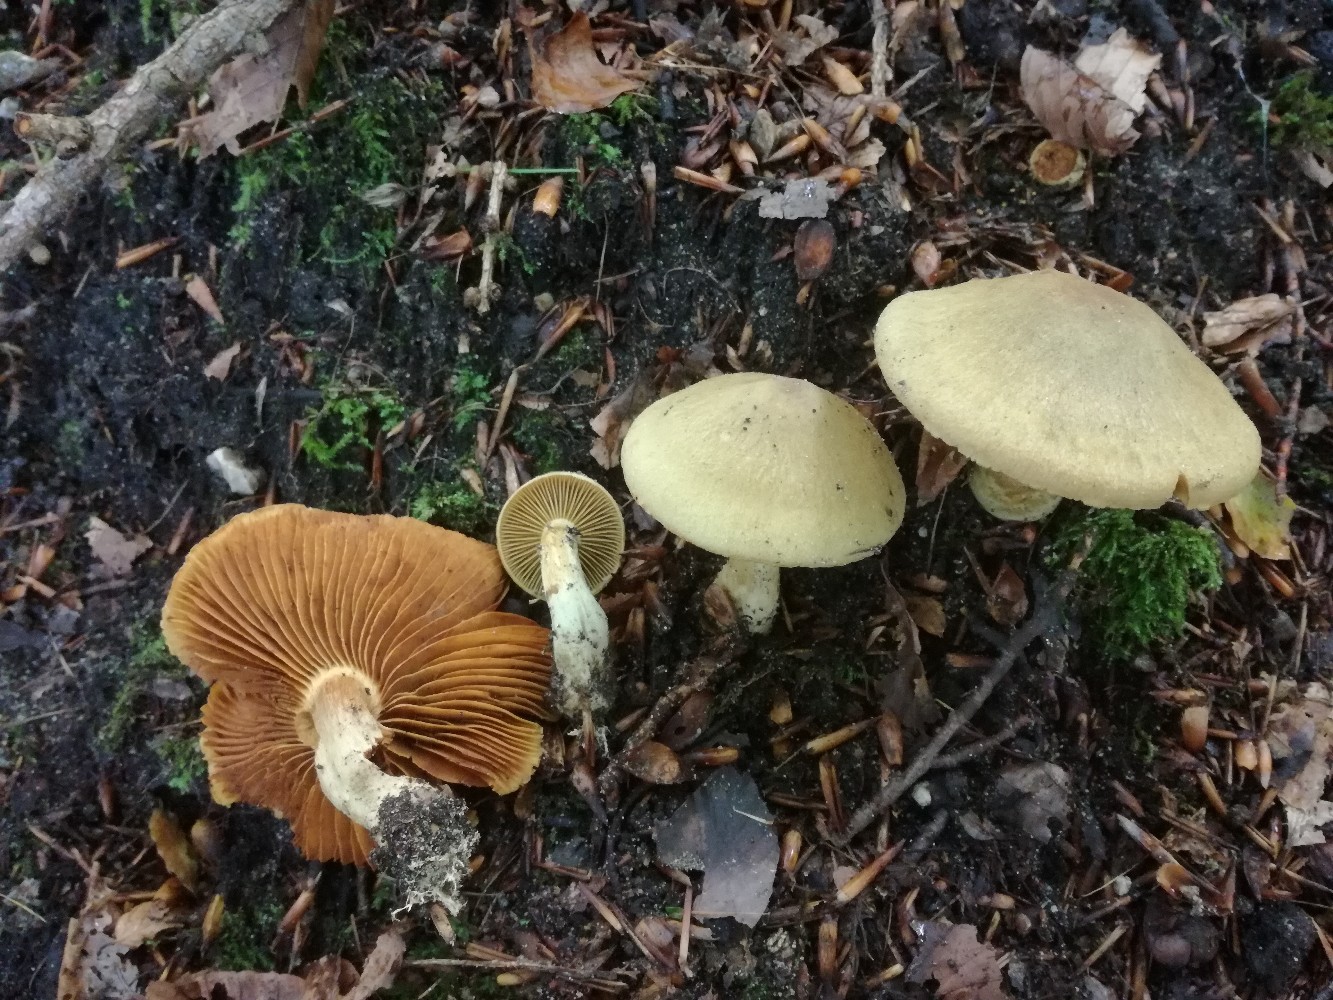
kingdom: Fungi
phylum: Basidiomycota
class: Agaricomycetes
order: Agaricales
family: Cortinariaceae
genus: Cortinarius
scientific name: Cortinarius venetus
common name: olivengrøn slørhat
